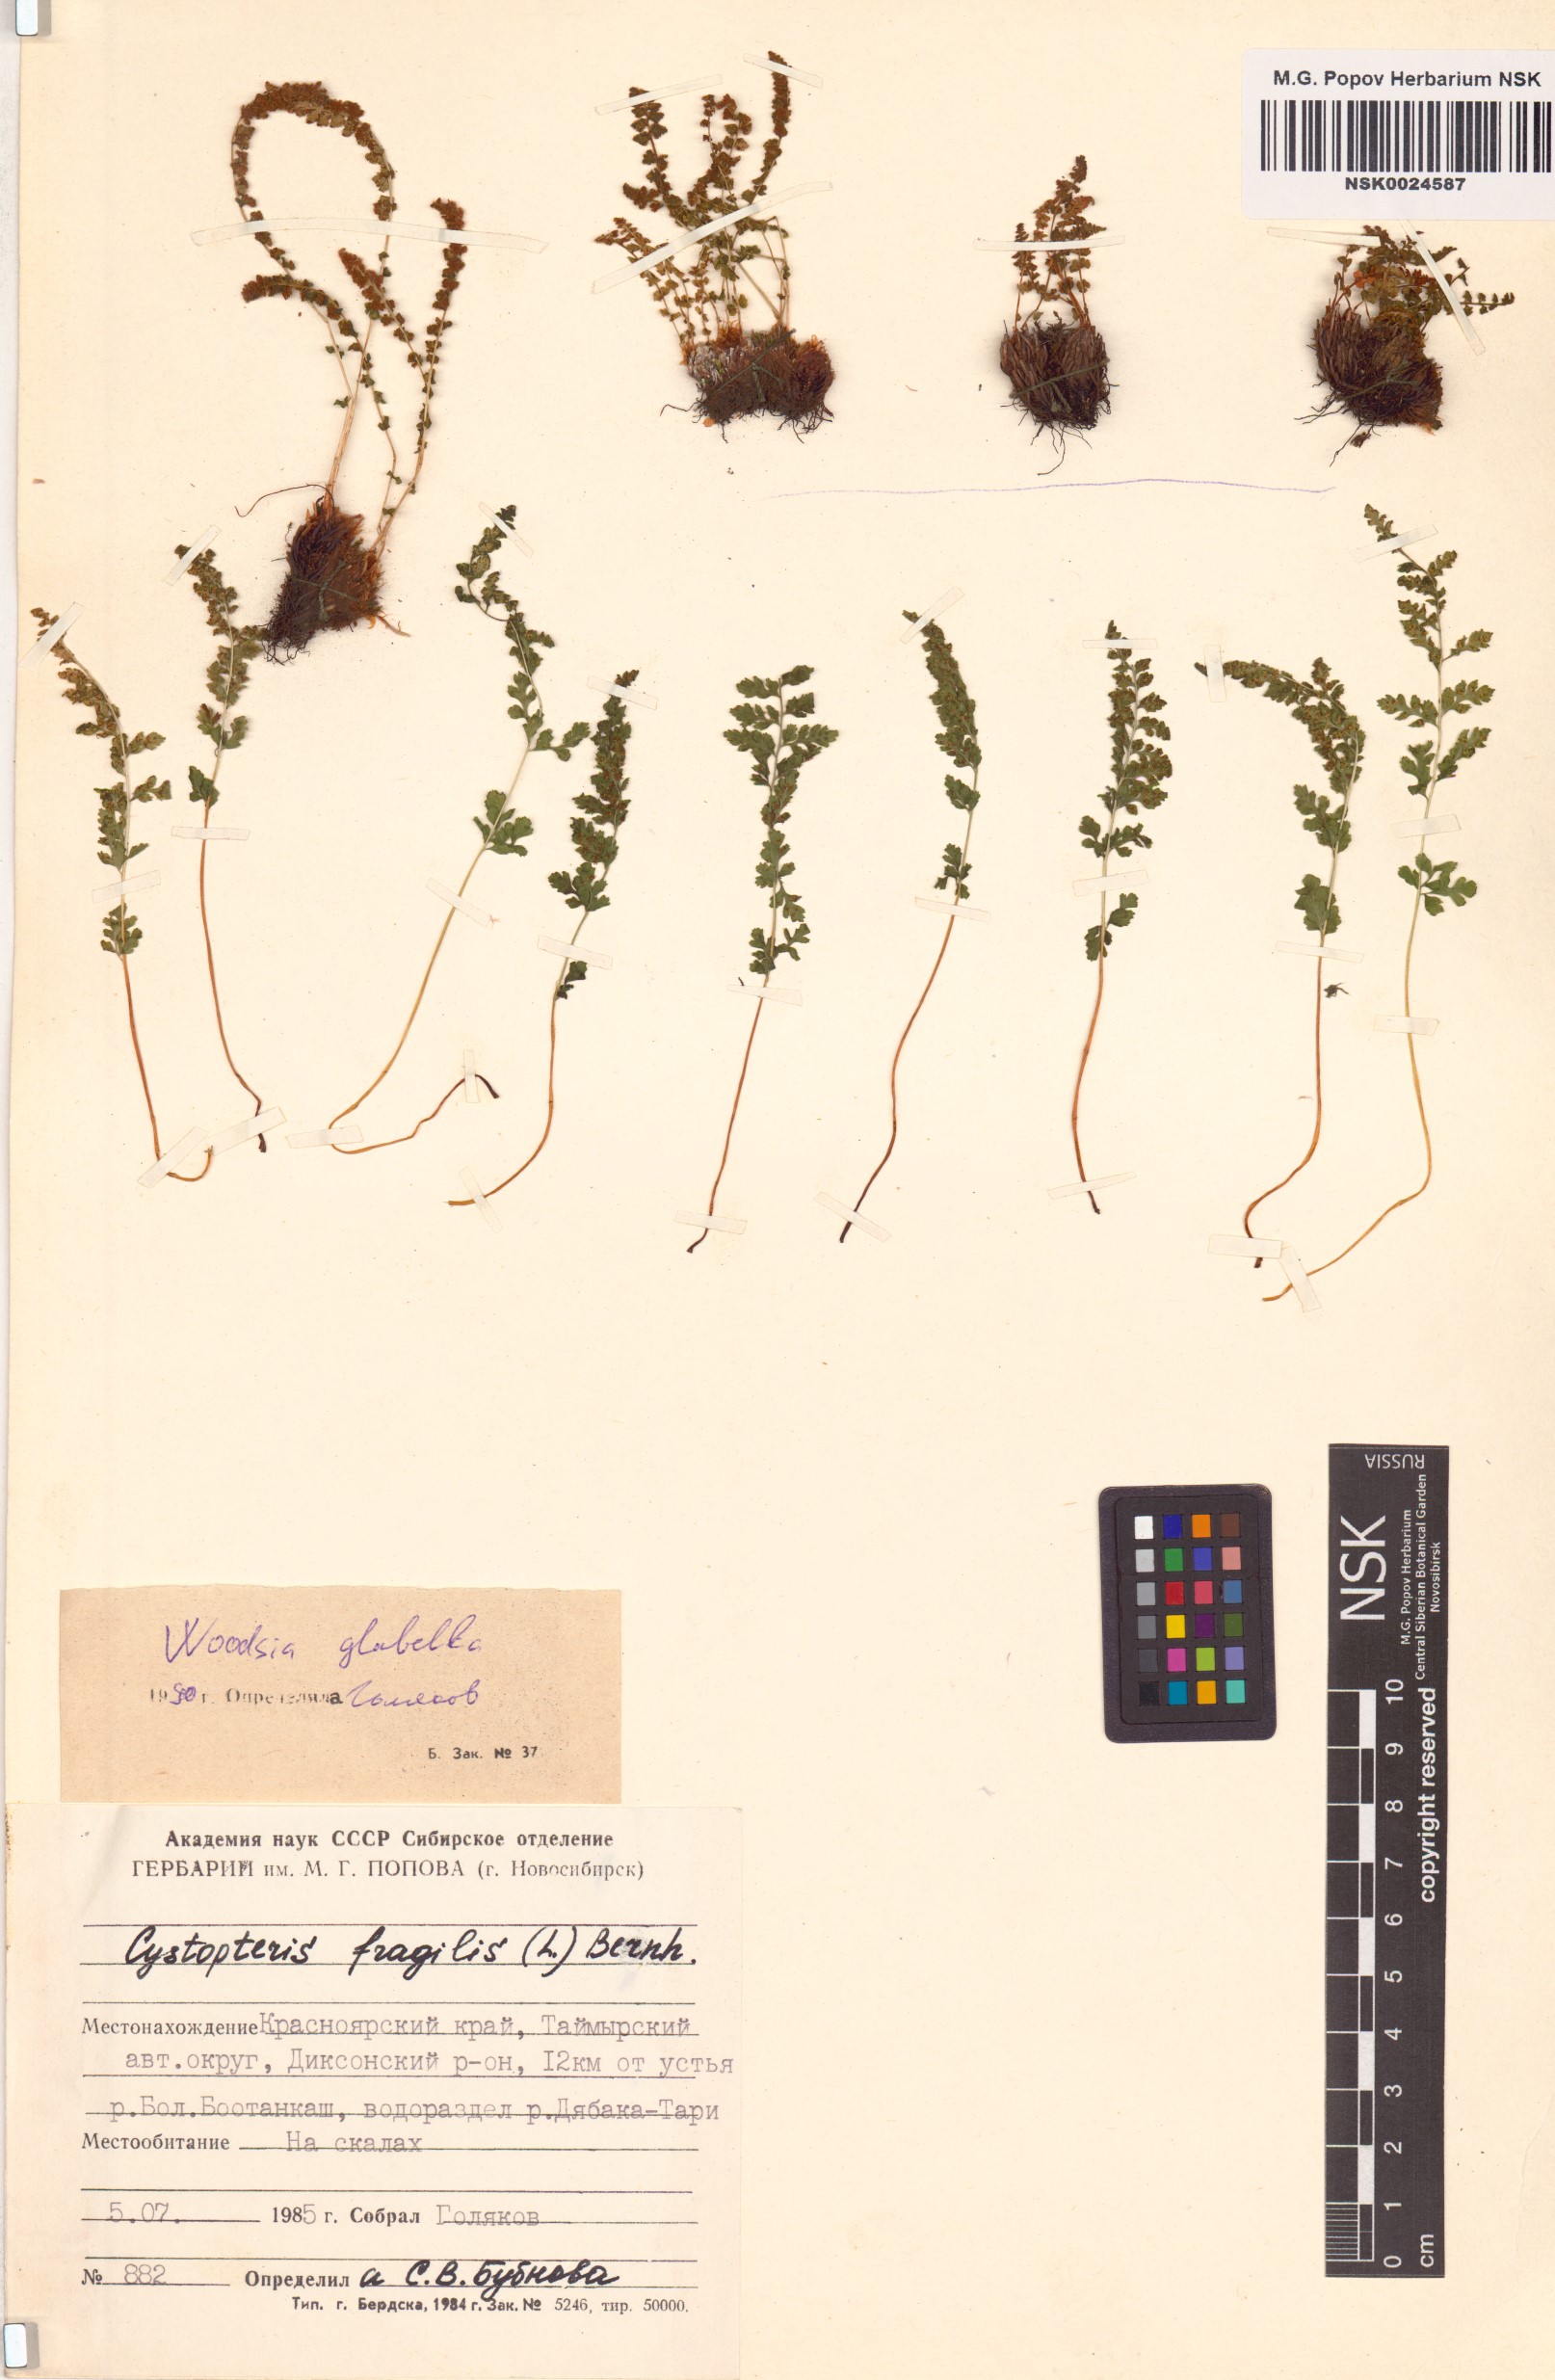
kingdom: Plantae
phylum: Tracheophyta
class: Polypodiopsida
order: Polypodiales
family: Woodsiaceae
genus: Woodsia
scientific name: Woodsia glabella
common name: Smooth woodsia
